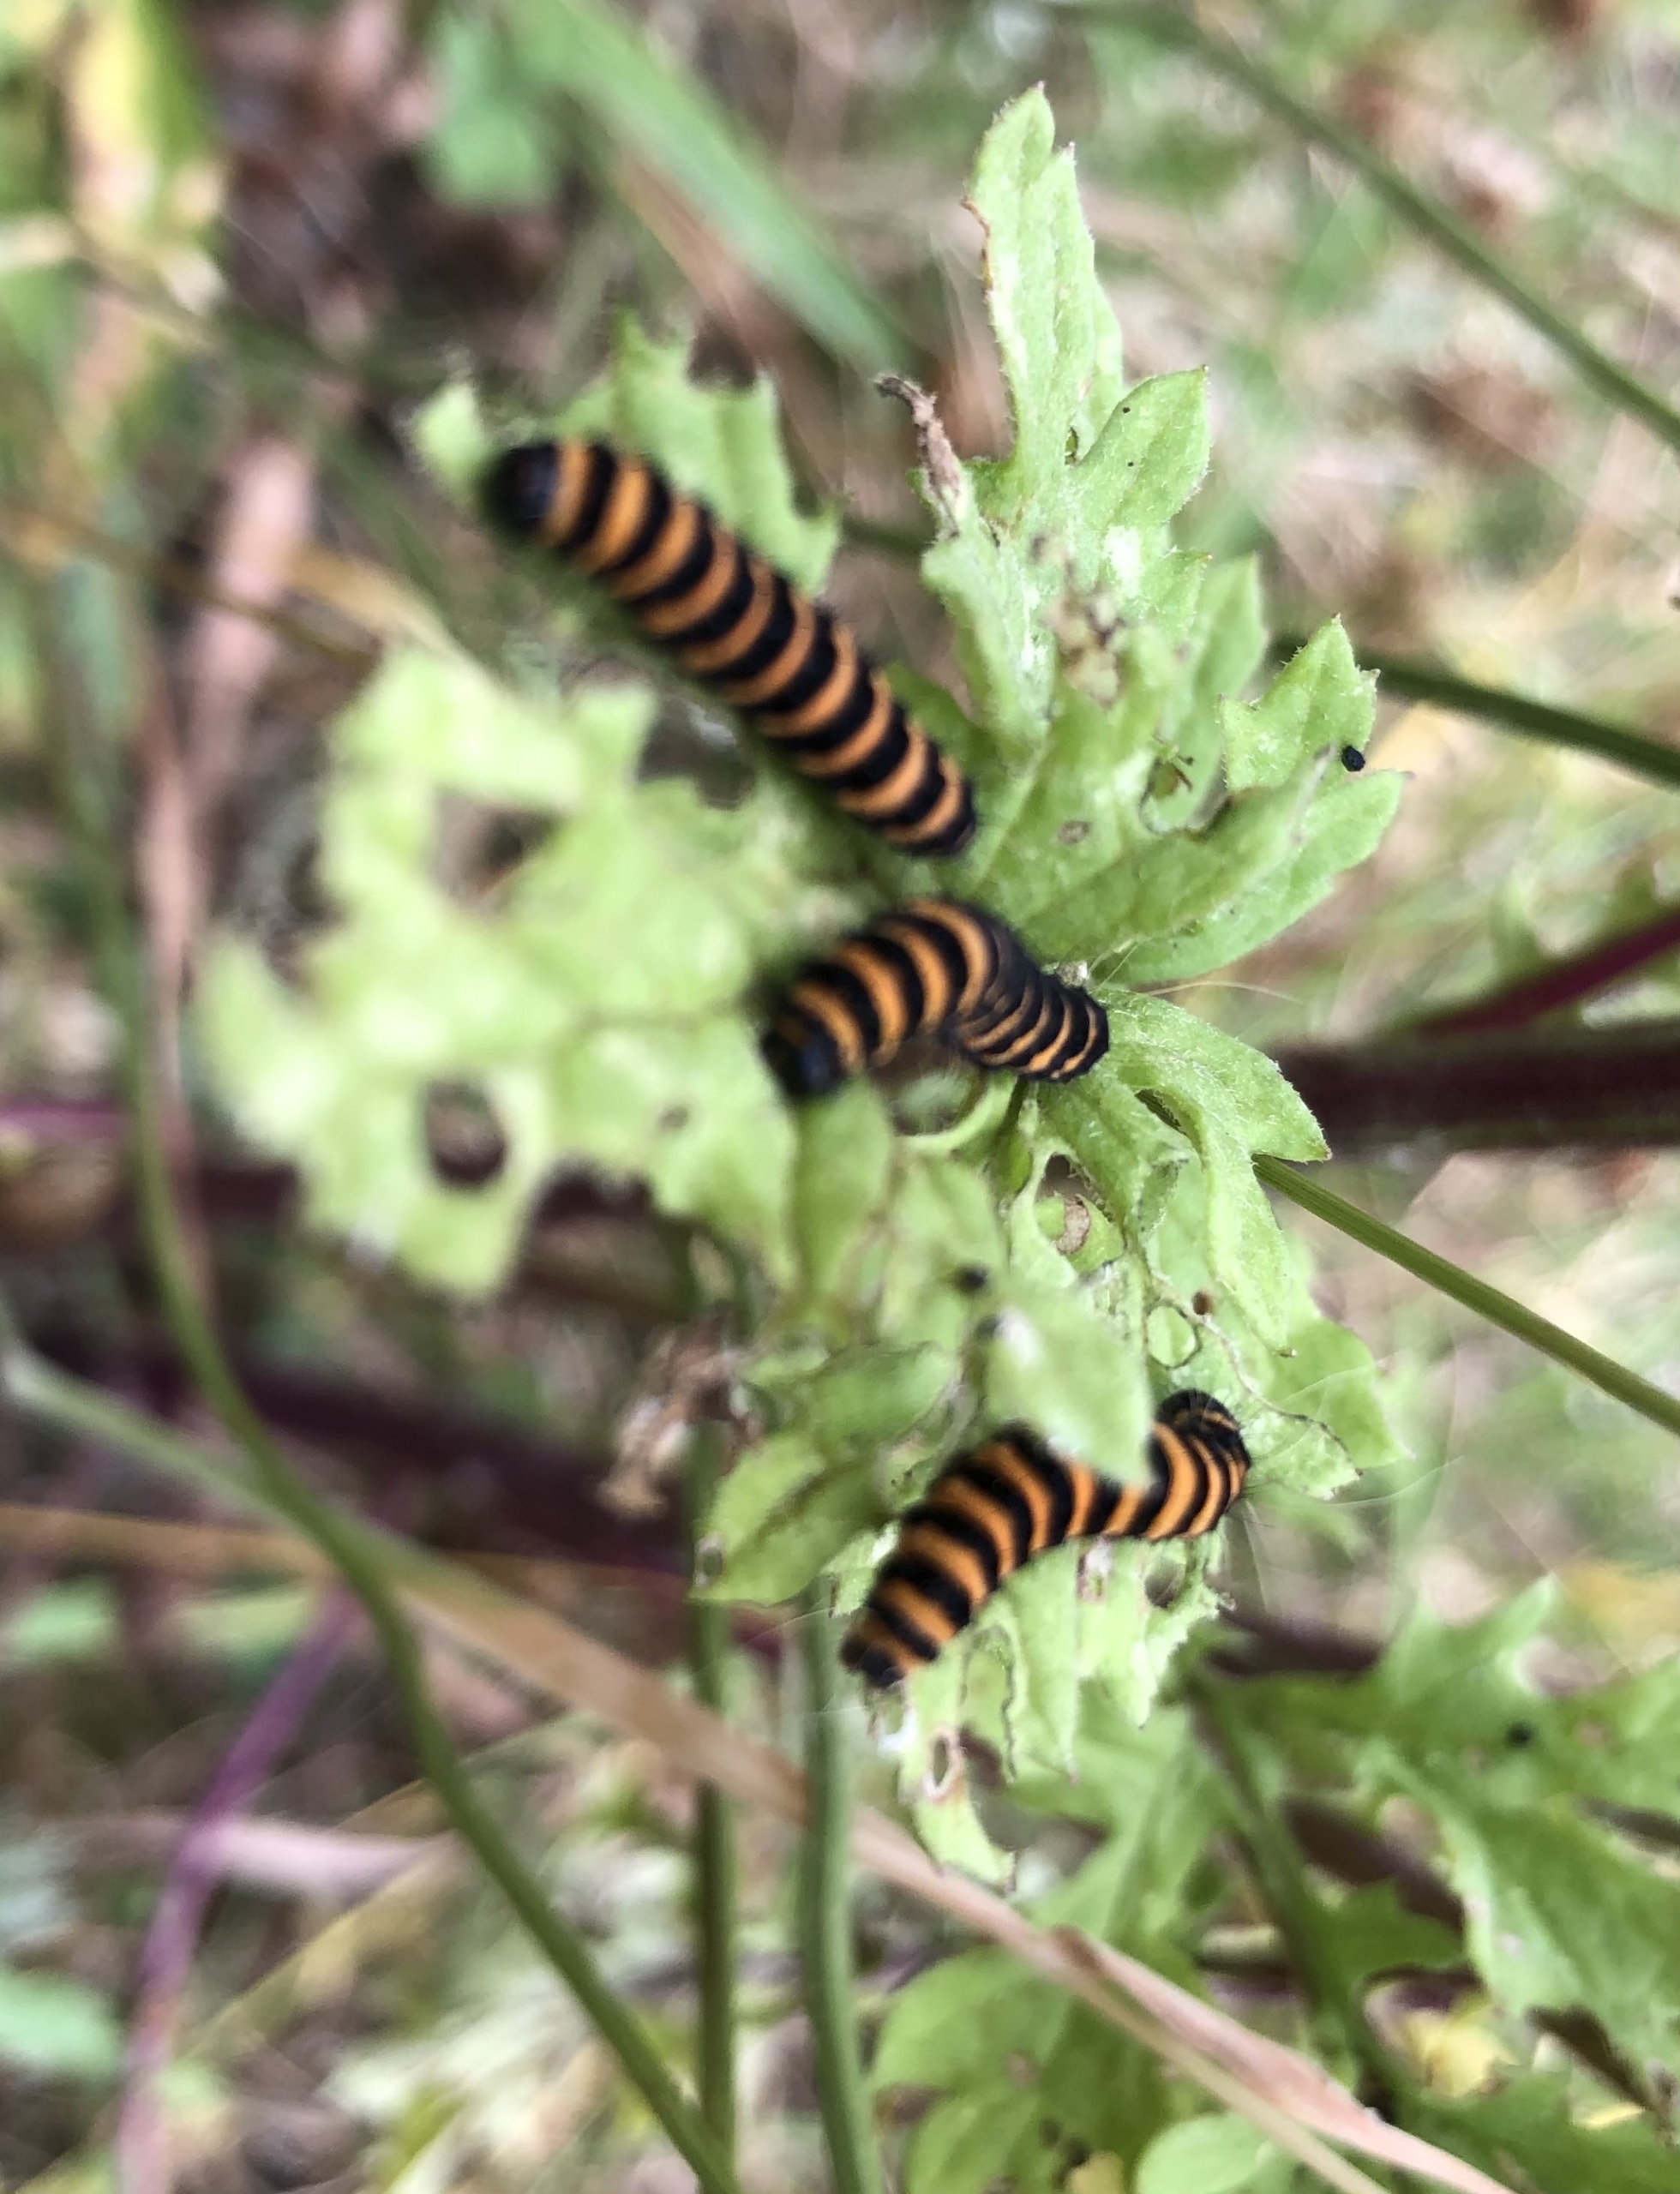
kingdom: Animalia
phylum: Arthropoda
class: Insecta
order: Lepidoptera
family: Erebidae
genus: Tyria
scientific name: Tyria jacobaeae
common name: Blodplet
